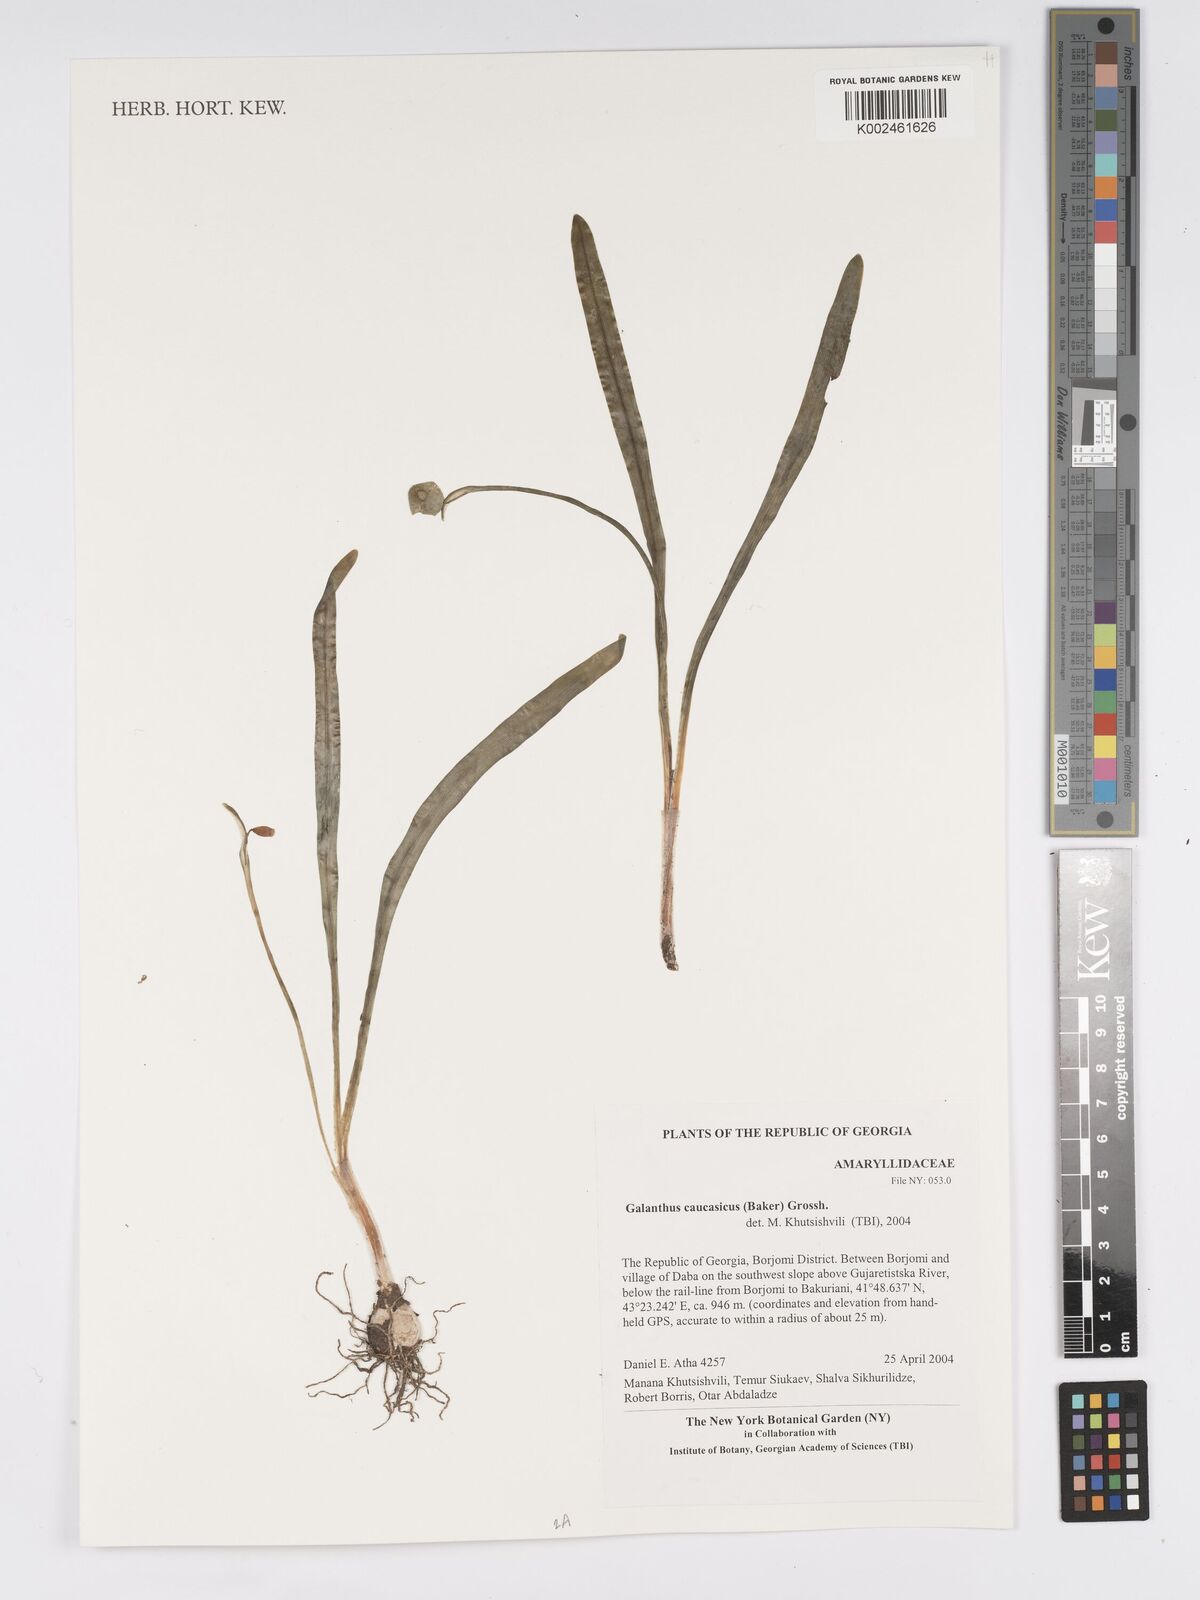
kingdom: Plantae
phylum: Tracheophyta
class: Liliopsida
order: Asparagales
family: Amaryllidaceae
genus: Galanthus
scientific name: Galanthus alpinus
